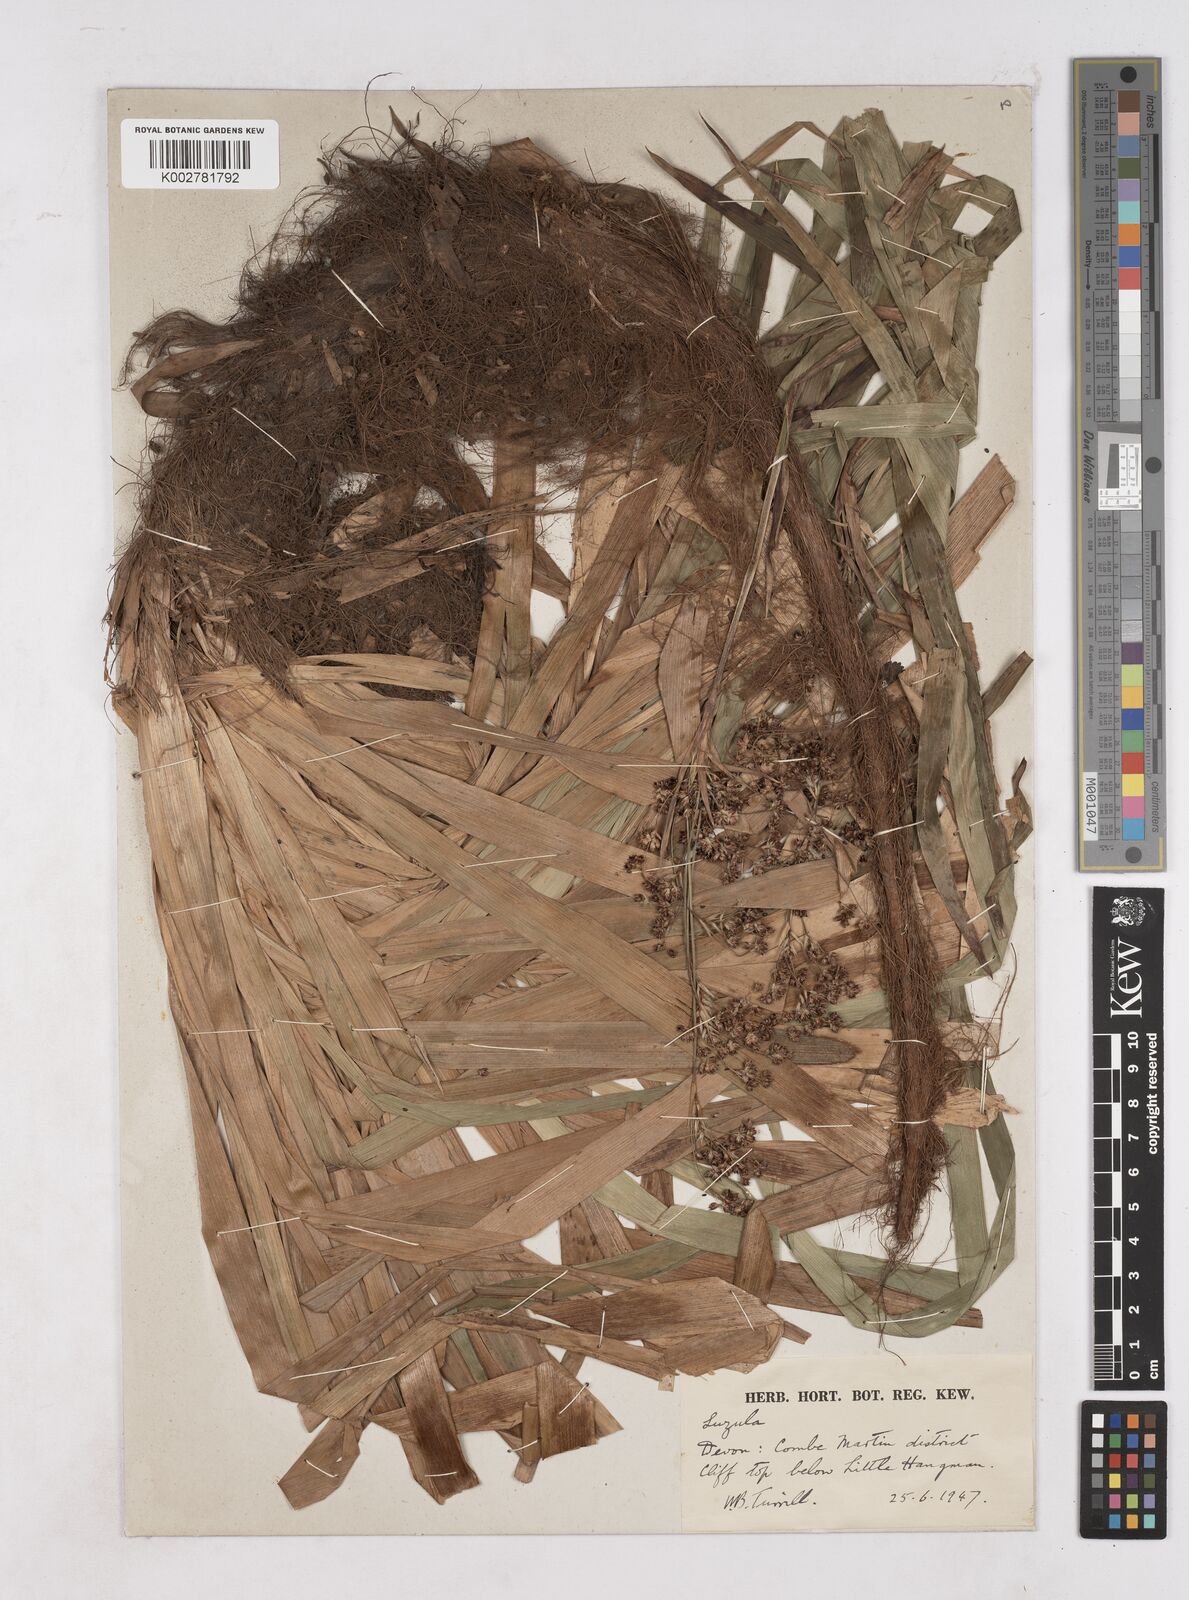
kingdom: Plantae
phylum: Tracheophyta
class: Liliopsida
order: Poales
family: Juncaceae
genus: Luzula
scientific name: Luzula
